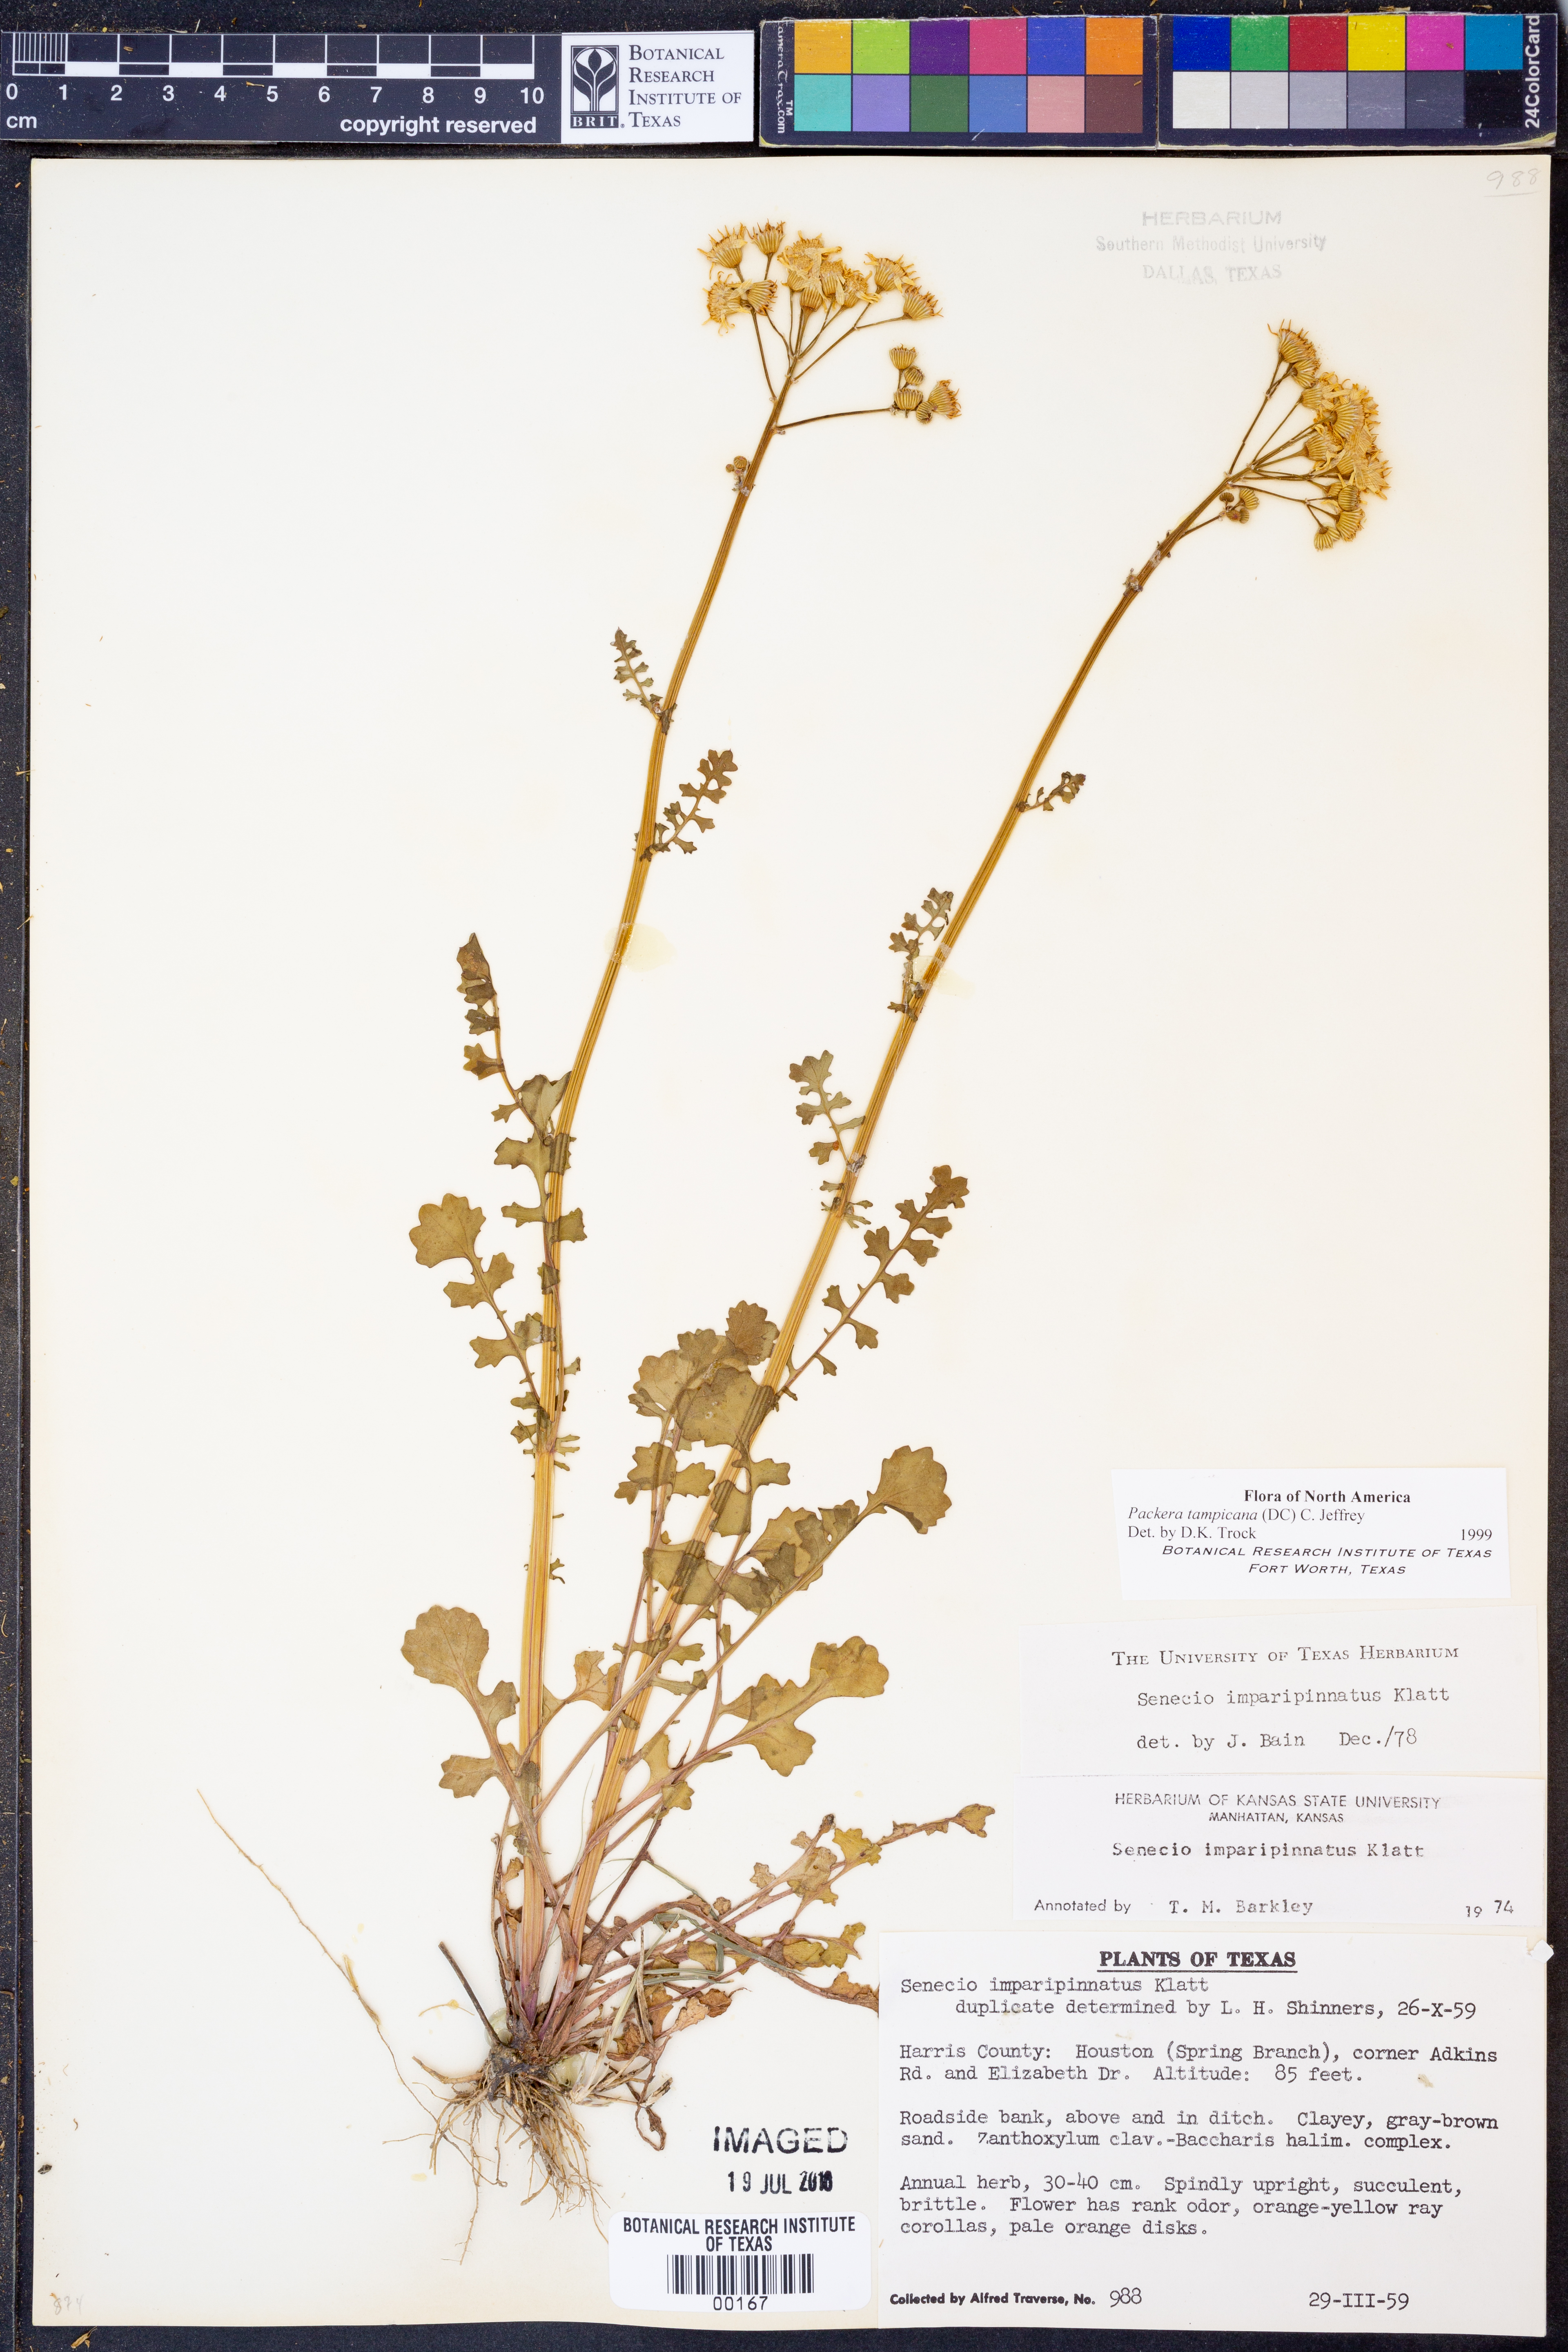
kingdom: Plantae
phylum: Tracheophyta
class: Magnoliopsida
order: Asterales
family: Asteraceae
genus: Packera
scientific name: Packera tampicana
